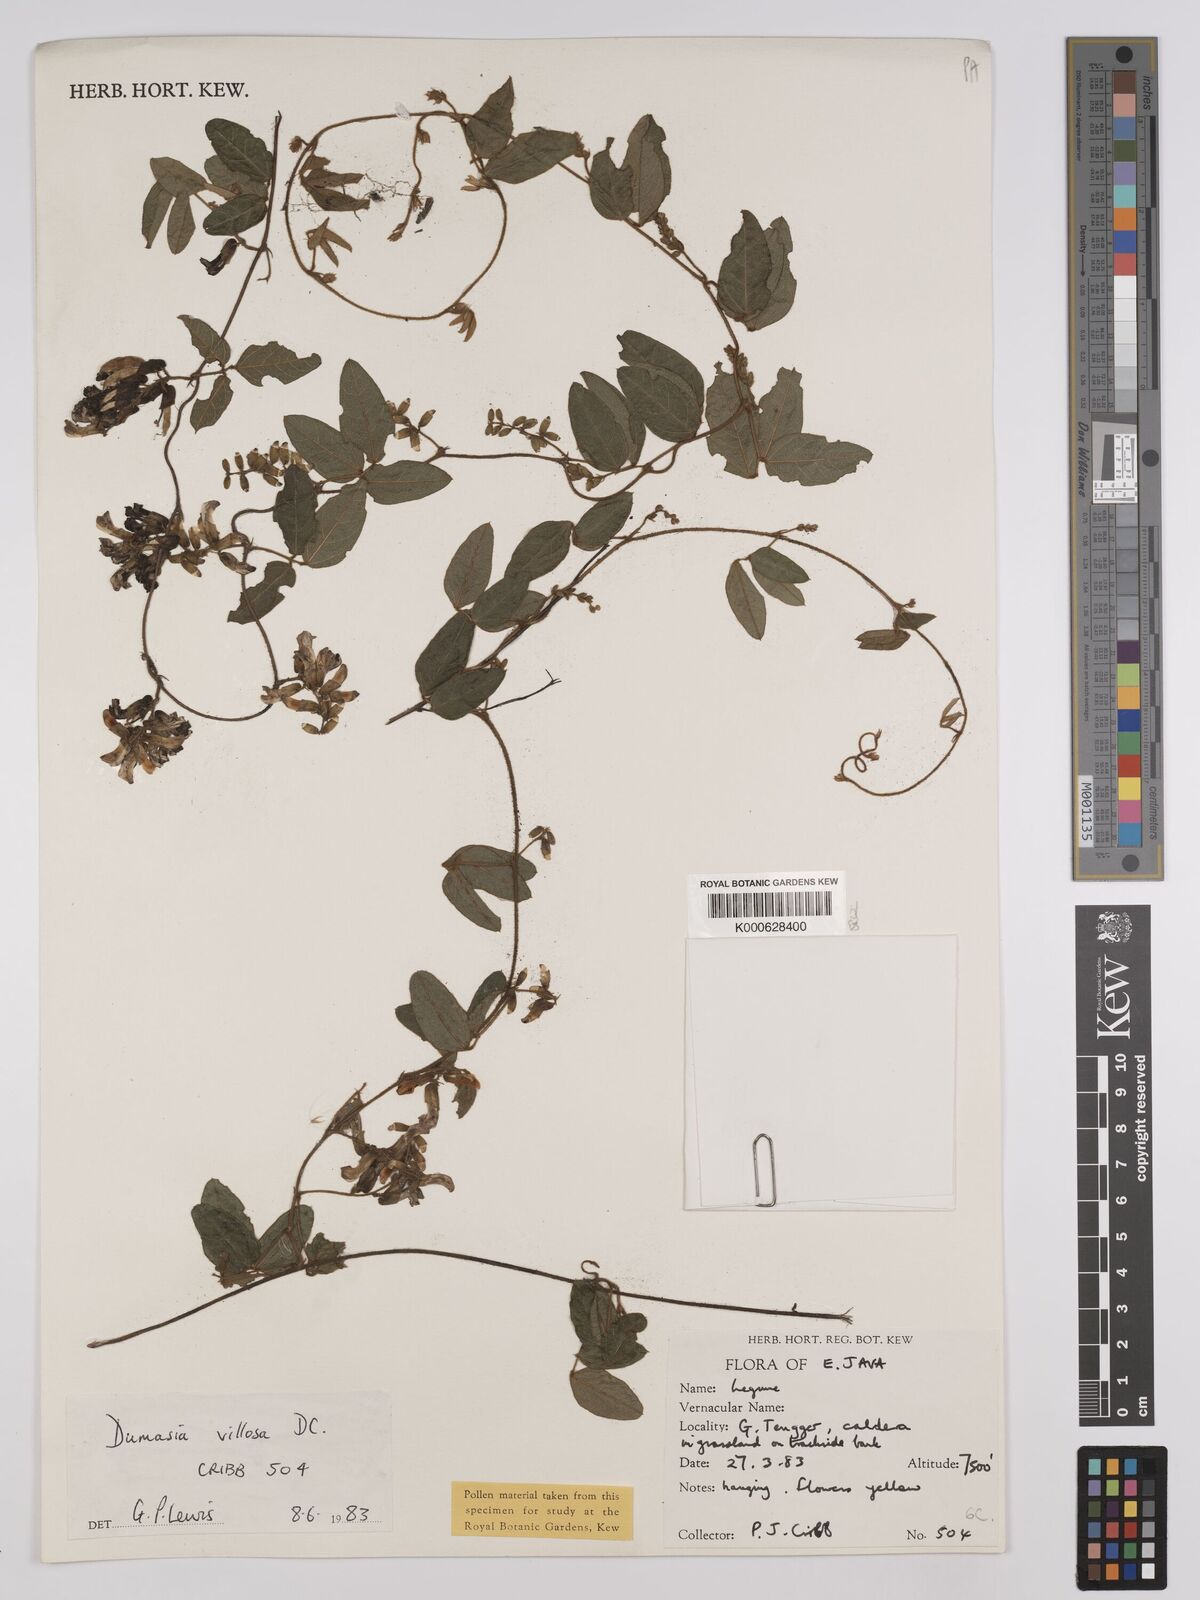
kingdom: Plantae
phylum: Tracheophyta
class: Magnoliopsida
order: Fabales
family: Fabaceae
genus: Dumasia
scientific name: Dumasia villosa
